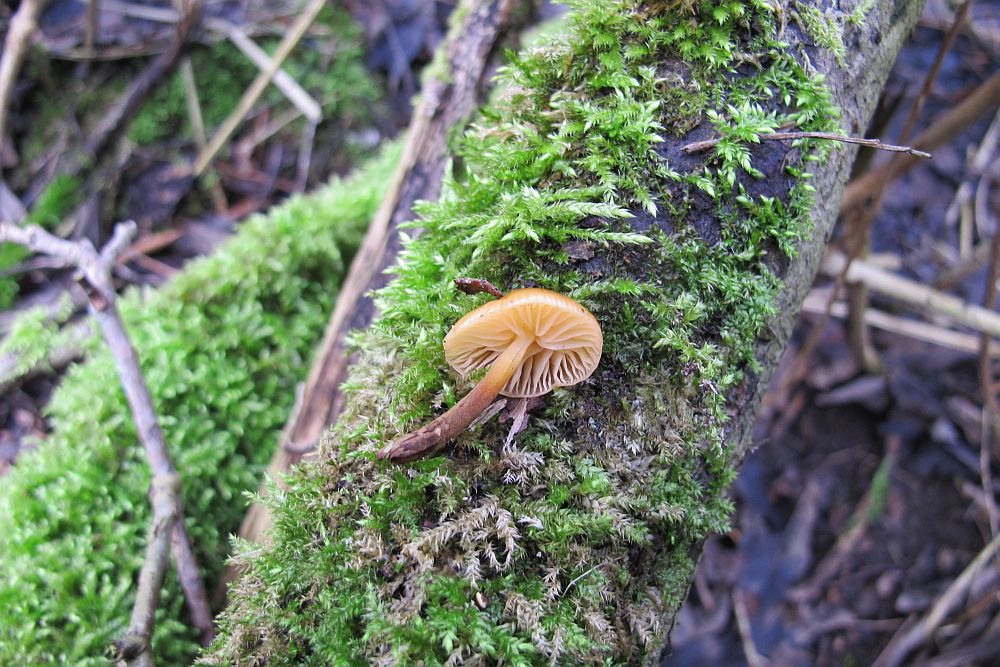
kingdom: Fungi
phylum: Basidiomycota
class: Agaricomycetes
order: Agaricales
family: Physalacriaceae
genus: Flammulina
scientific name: Flammulina velutipes
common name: gul fløjlsfod
